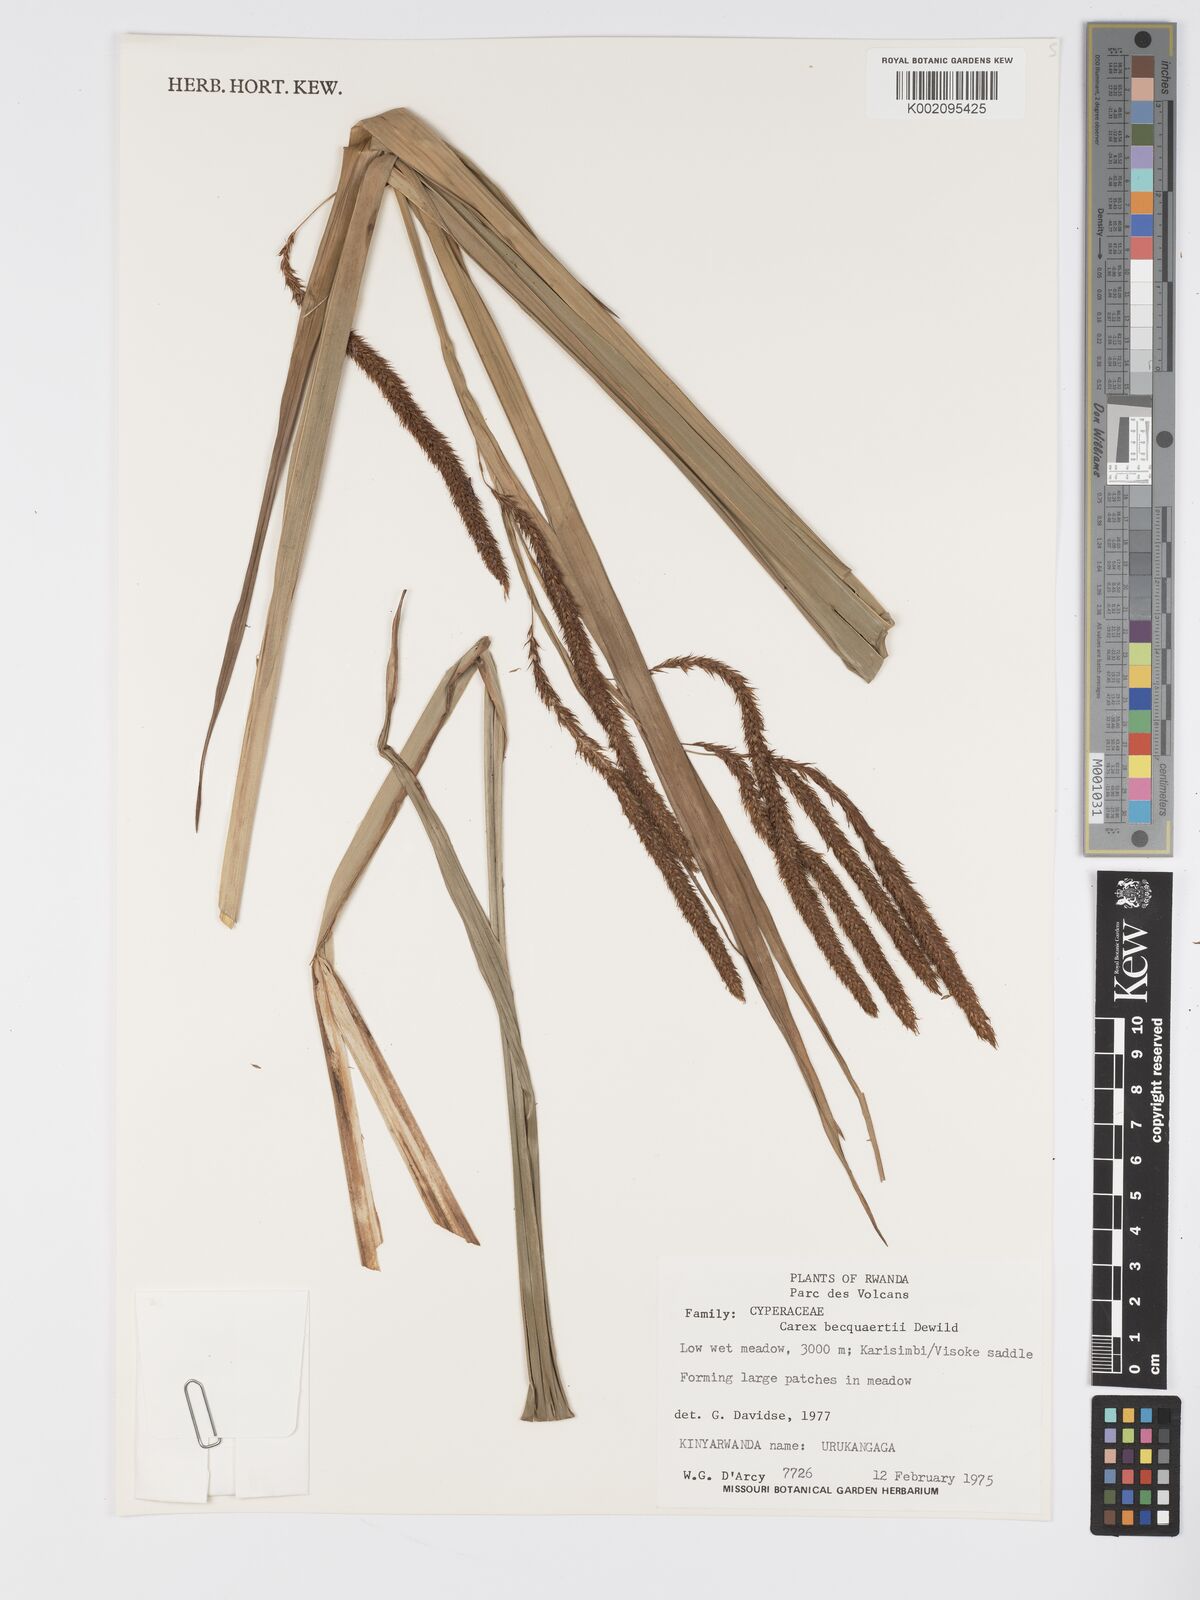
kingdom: Plantae
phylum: Tracheophyta
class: Liliopsida
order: Poales
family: Cyperaceae
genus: Carex
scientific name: Carex bequaertii
